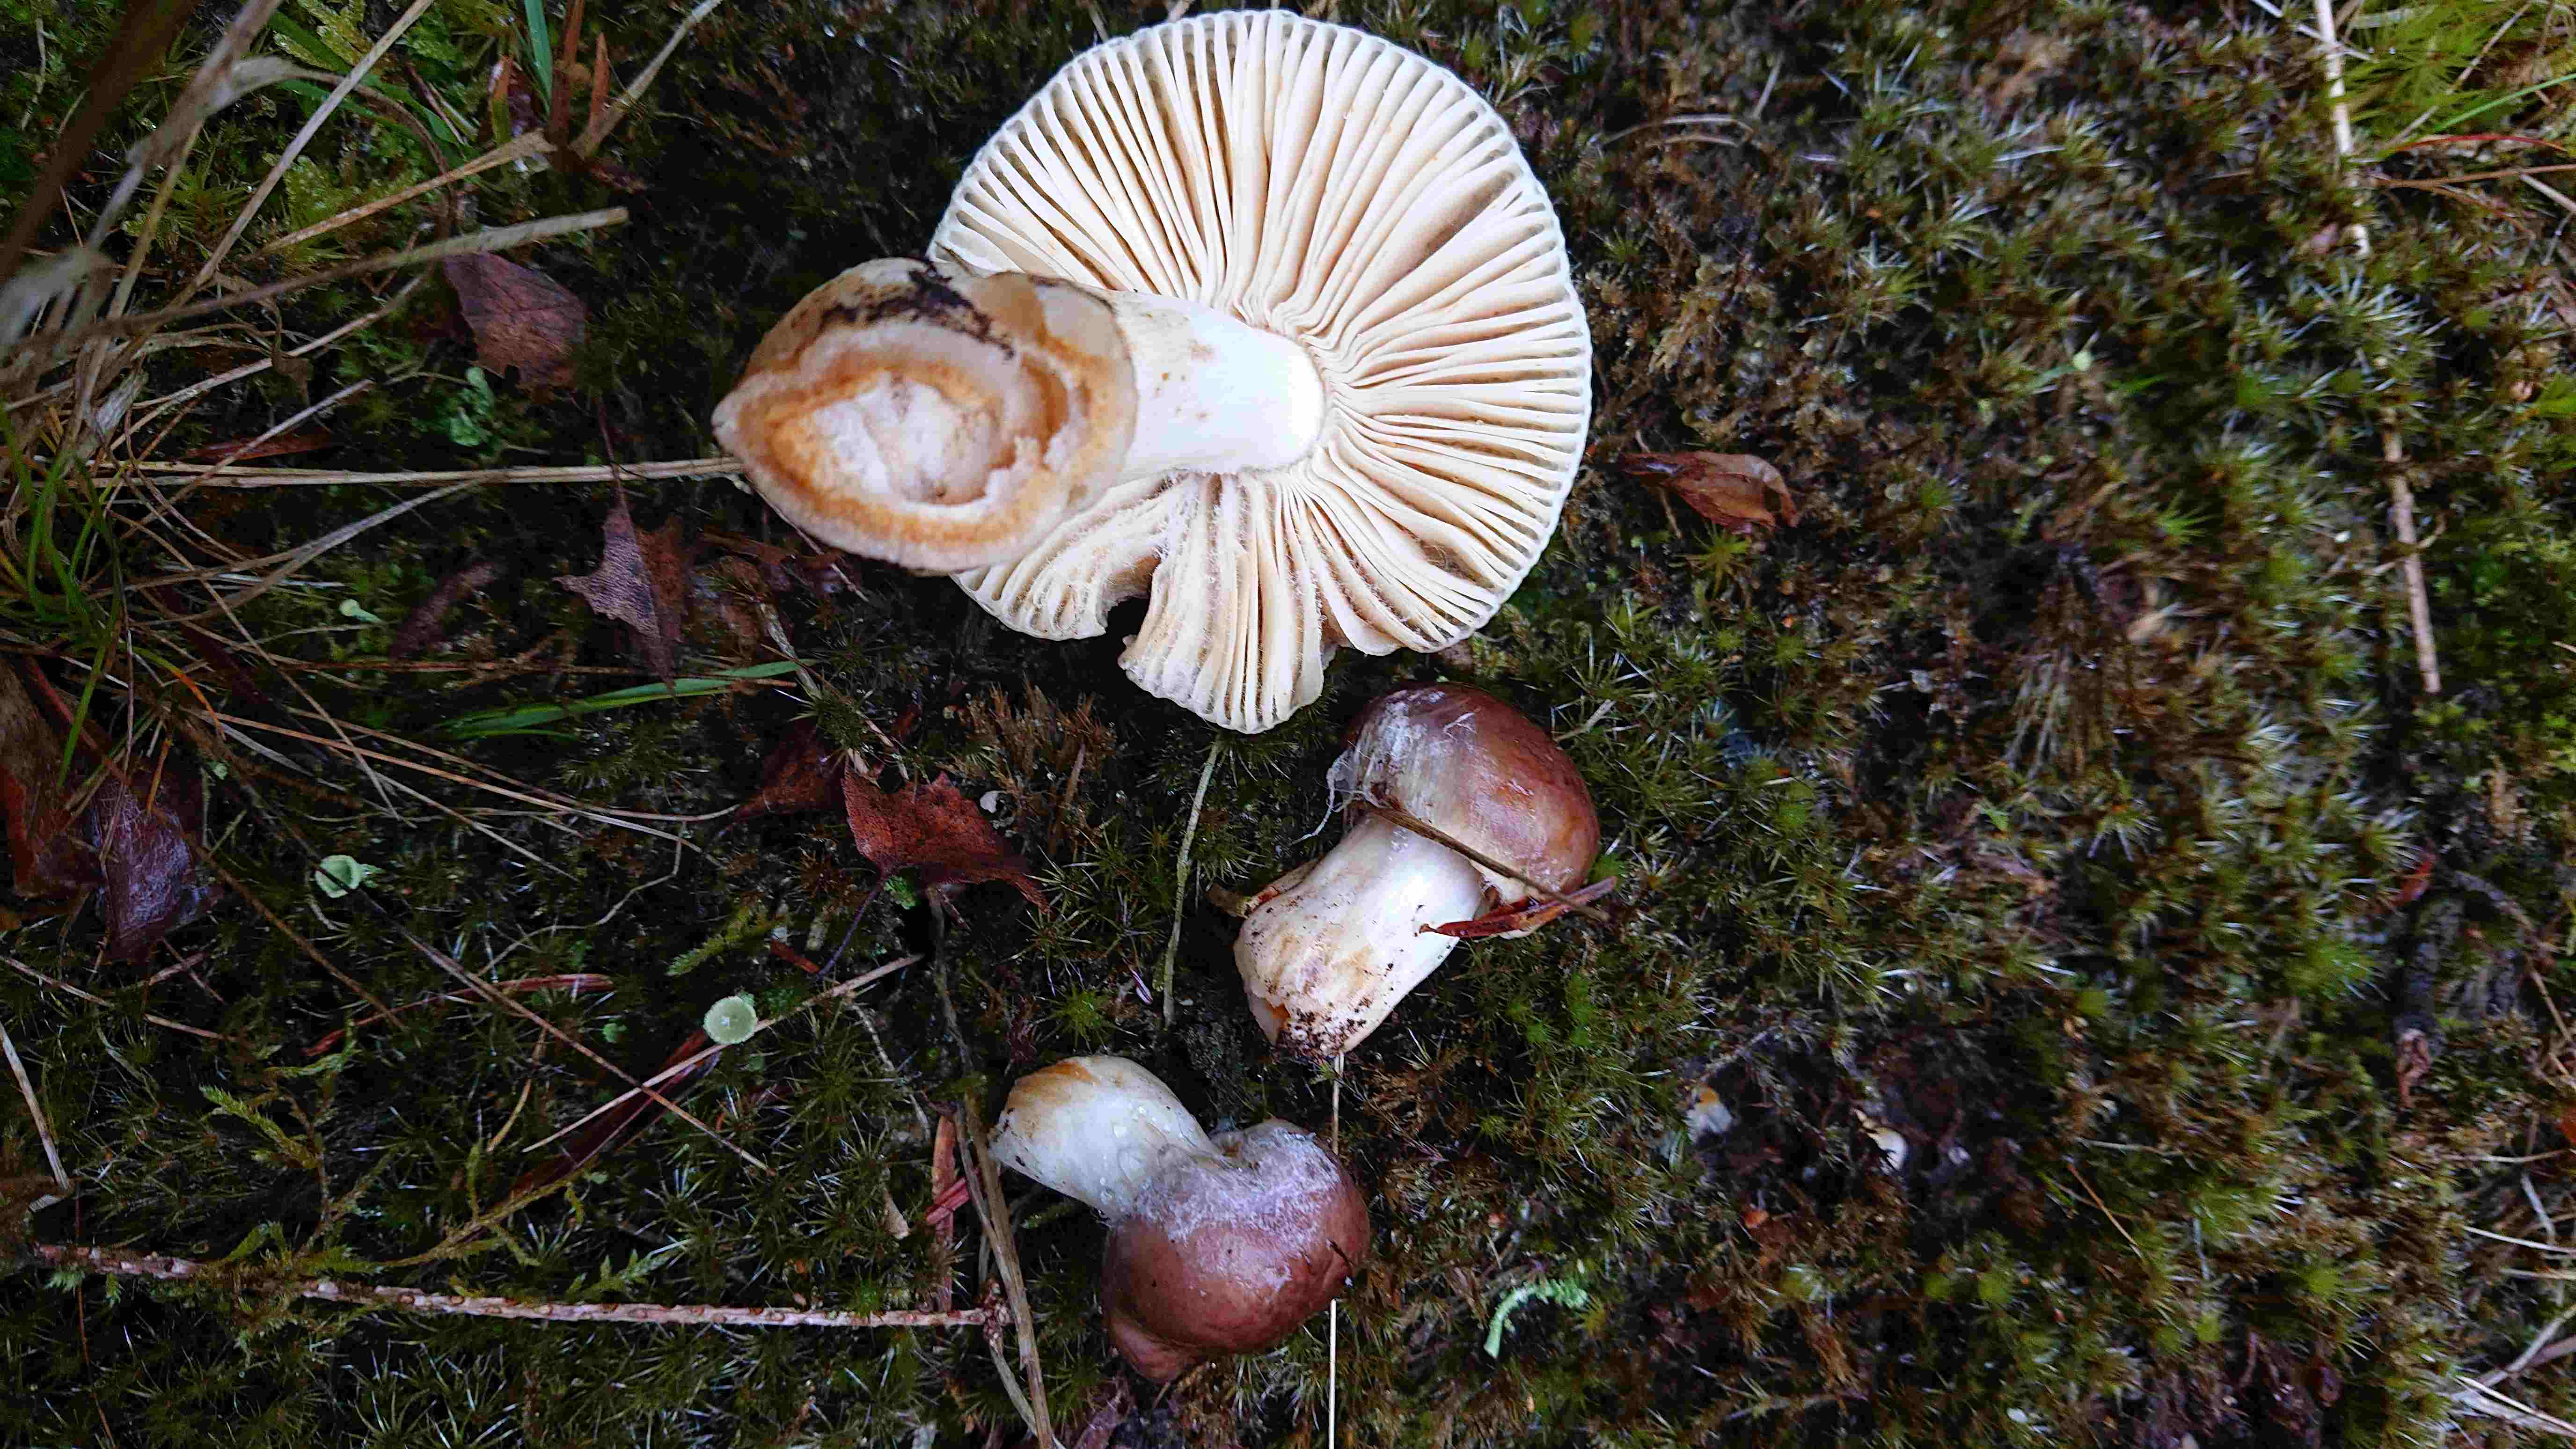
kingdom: Fungi
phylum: Basidiomycota
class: Agaricomycetes
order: Russulales
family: Russulaceae
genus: Russula
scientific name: Russula
